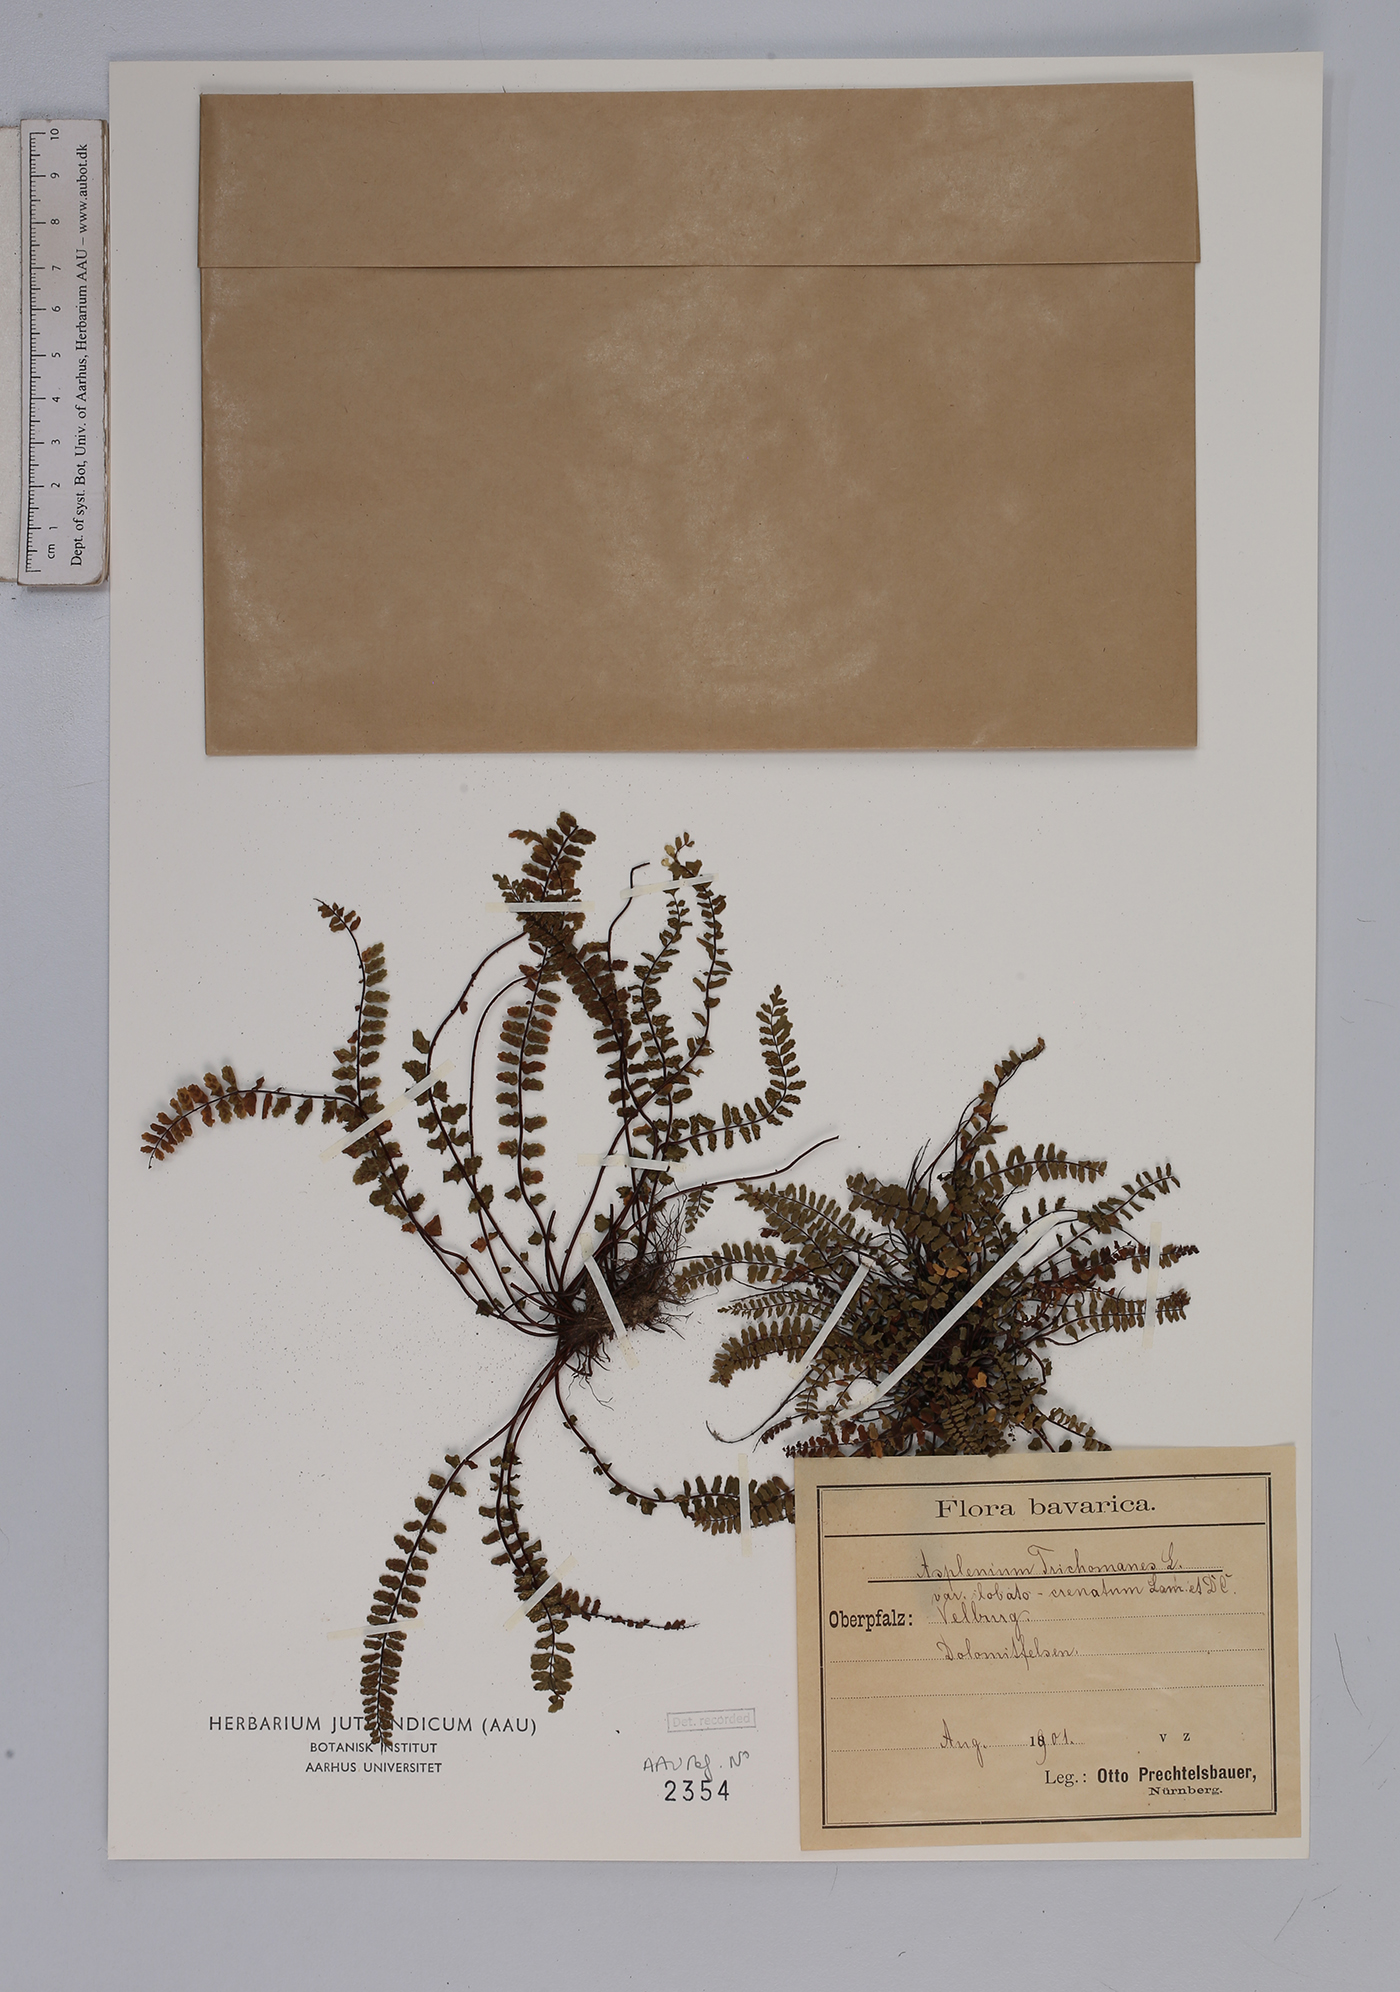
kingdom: Plantae
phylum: Tracheophyta
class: Polypodiopsida
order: Polypodiales
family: Aspleniaceae
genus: Asplenium
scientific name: Asplenium trichomanes
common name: Maidenhair spleenwort
